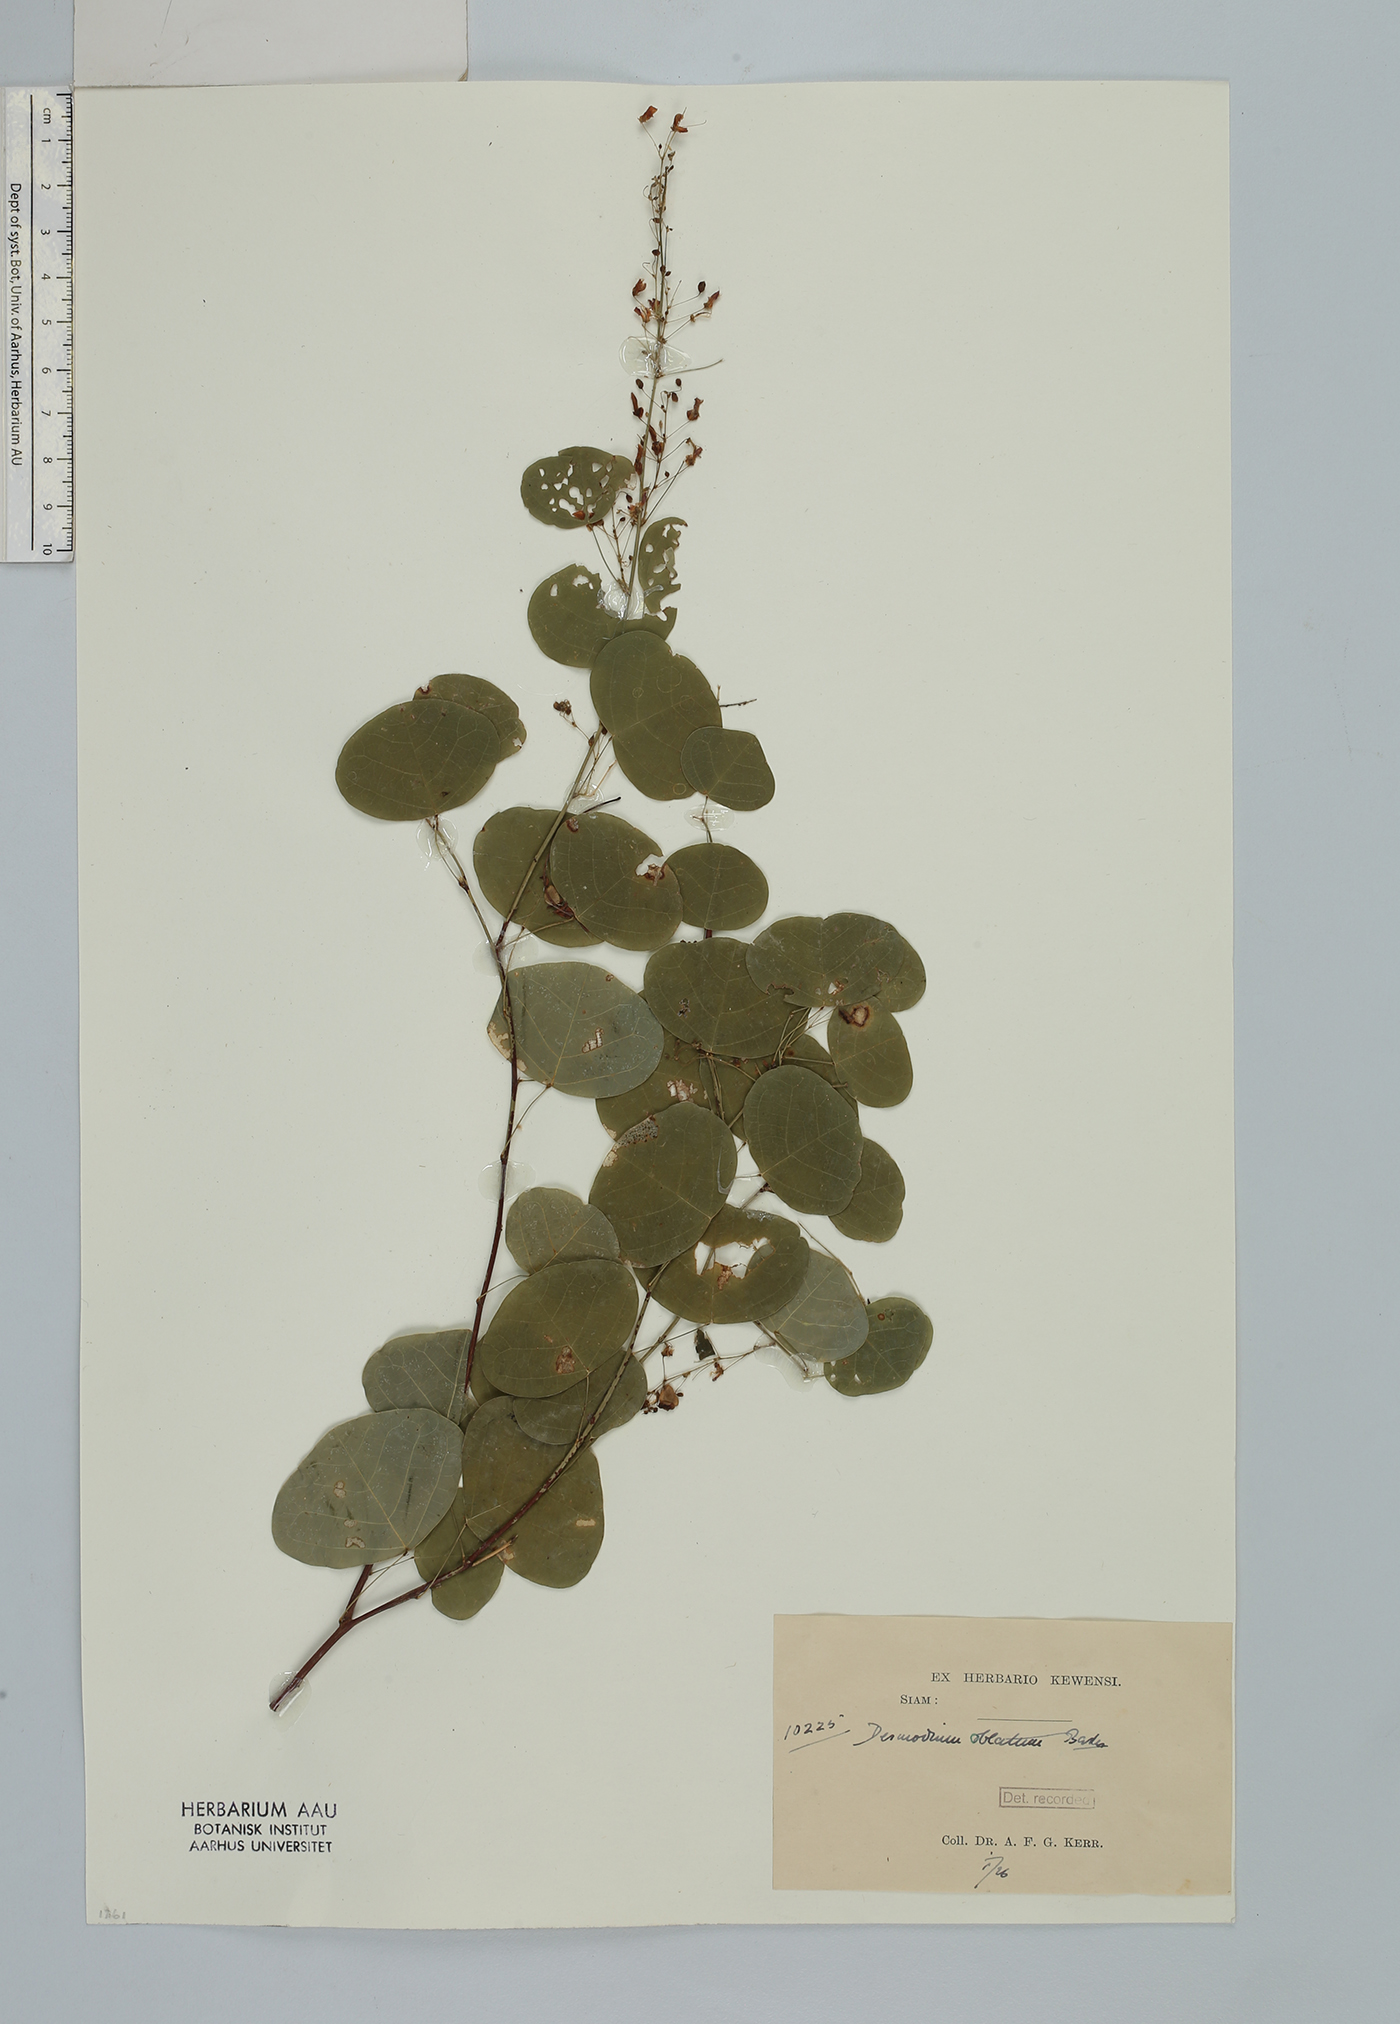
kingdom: Plantae
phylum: Tracheophyta
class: Magnoliopsida
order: Fabales
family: Fabaceae
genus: Huangtcia
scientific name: Huangtcia renifolia
